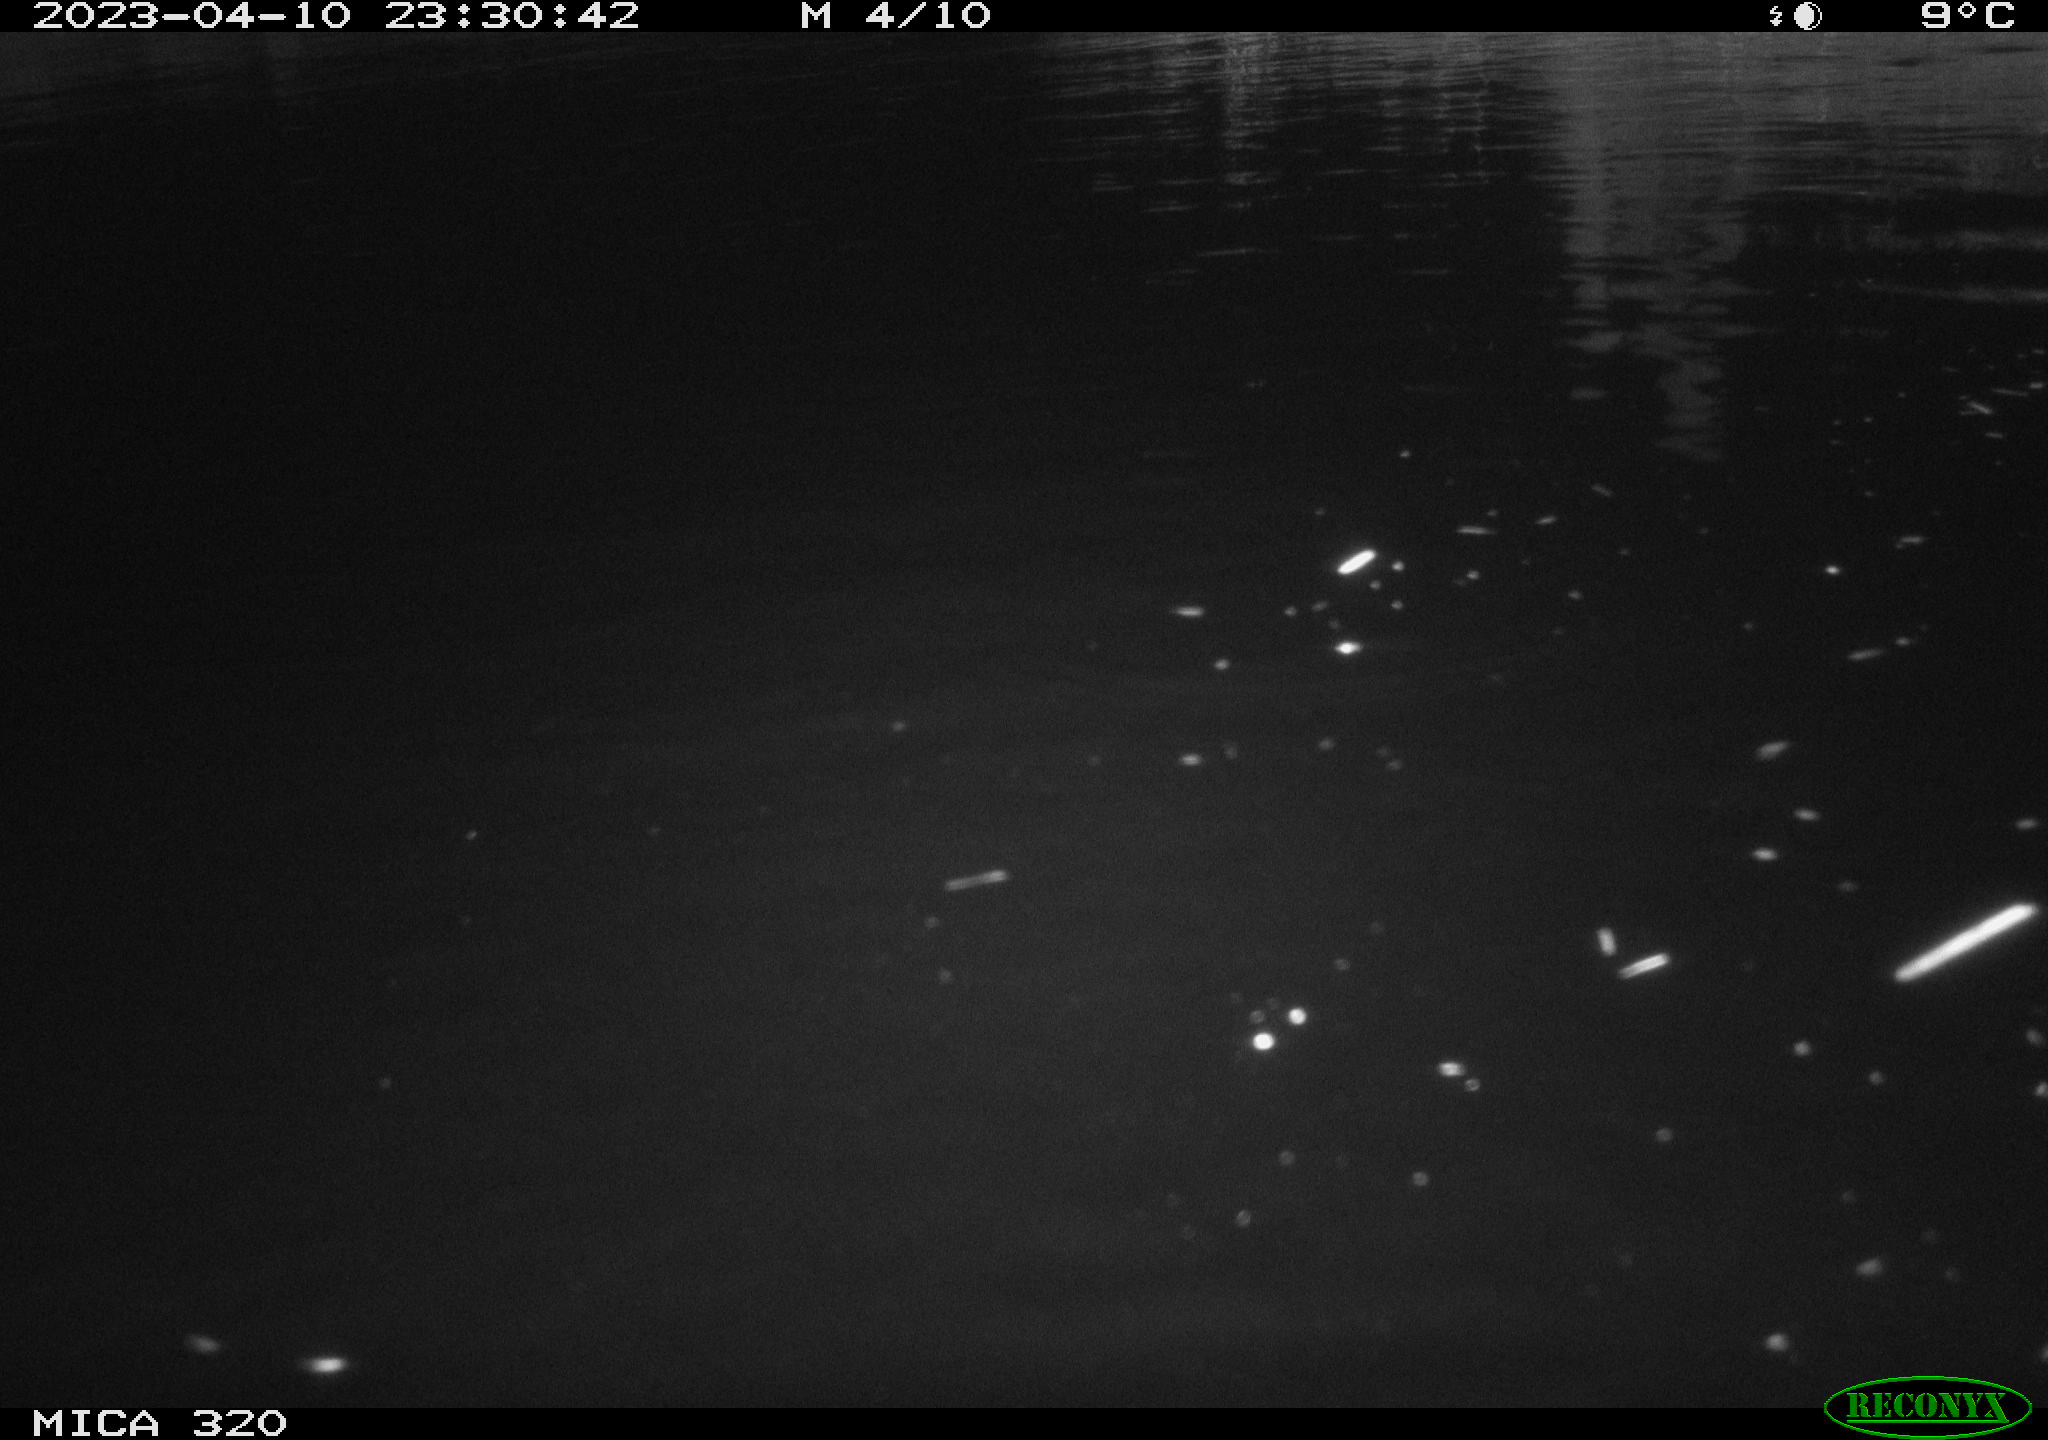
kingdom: Animalia
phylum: Chordata
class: Aves
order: Gruiformes
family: Rallidae
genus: Fulica
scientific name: Fulica atra
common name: Eurasian coot
